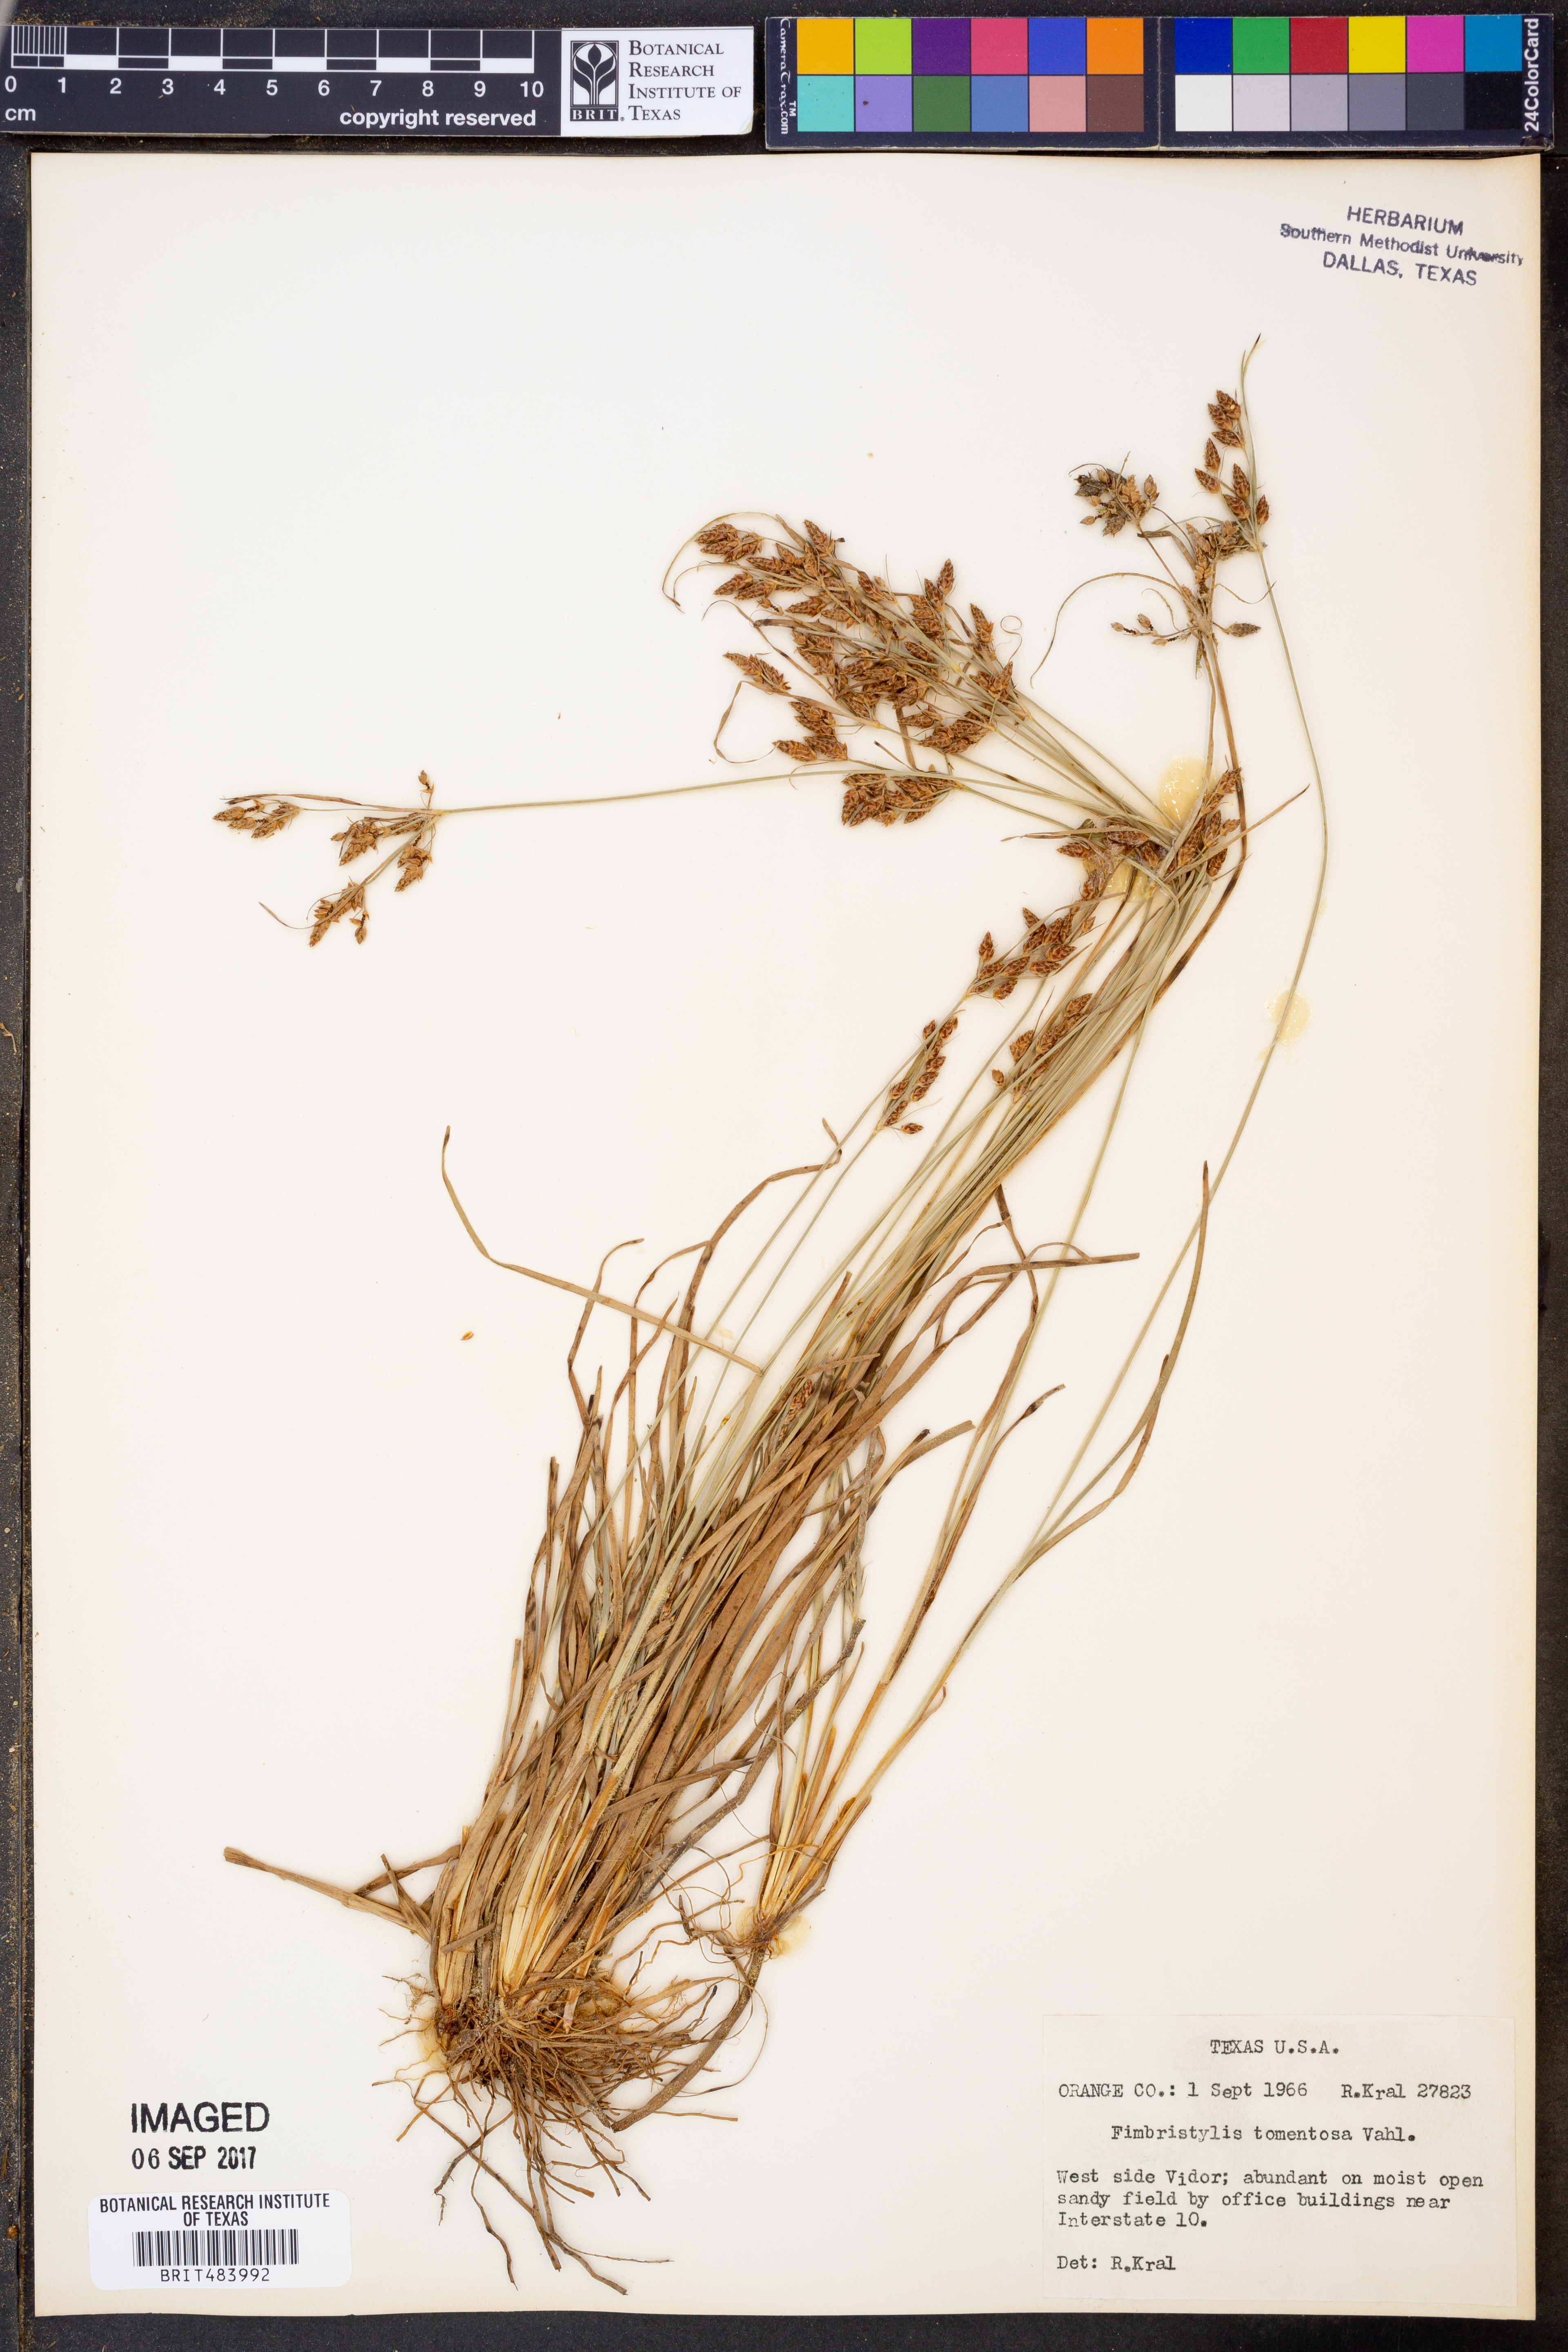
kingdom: Plantae
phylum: Tracheophyta
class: Liliopsida
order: Poales
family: Cyperaceae
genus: Fimbristylis
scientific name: Fimbristylis dichotoma
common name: Forked fimbry
